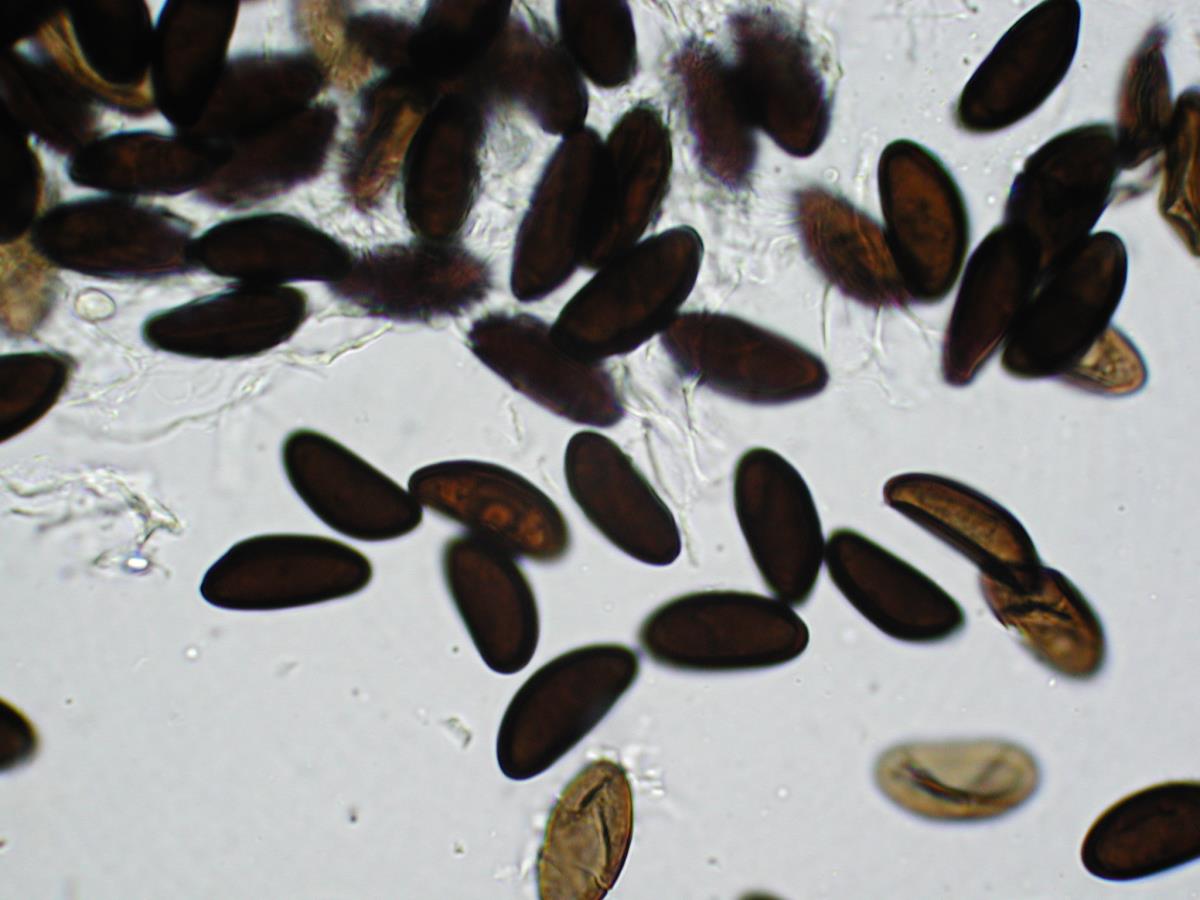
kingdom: Fungi
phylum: Ascomycota
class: Sordariomycetes
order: Xylariales
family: Hypoxylaceae
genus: Daldinia
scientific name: Daldinia grandis
